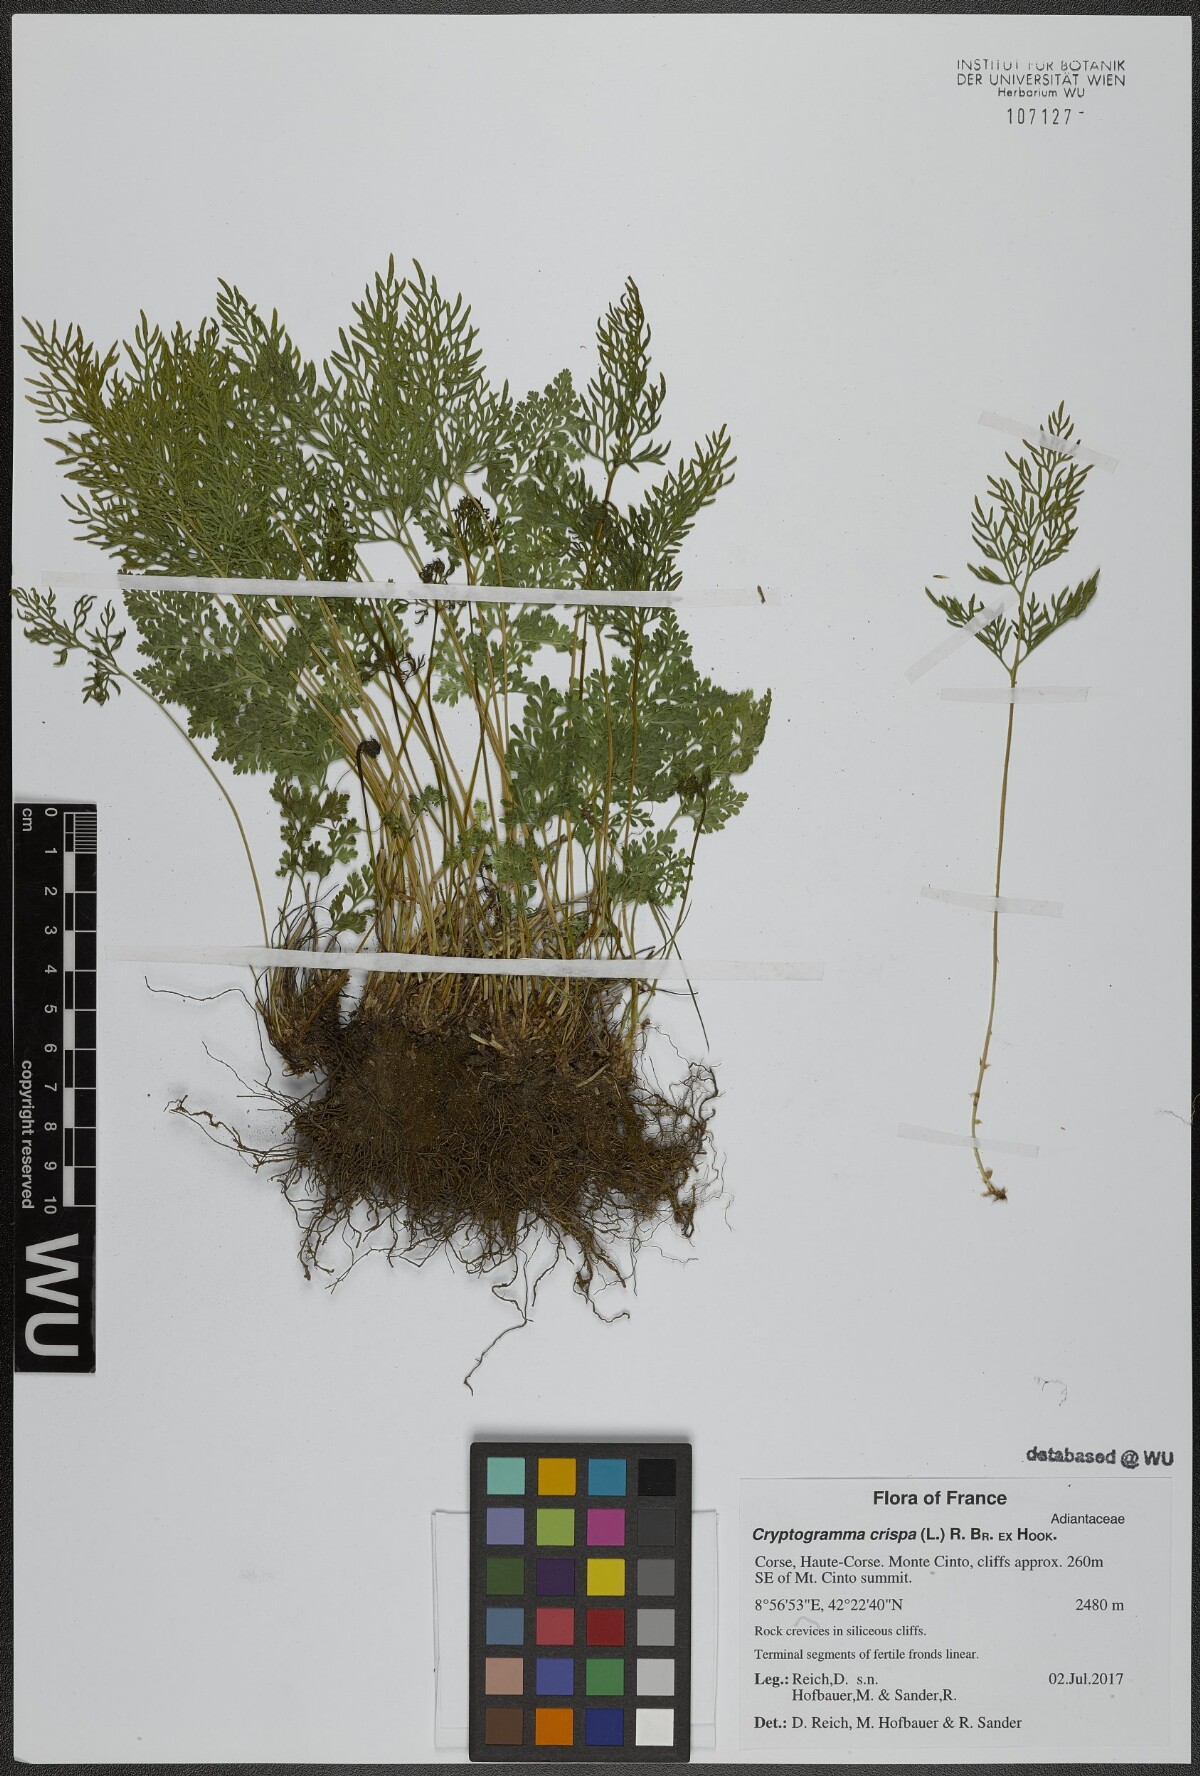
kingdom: Plantae
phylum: Tracheophyta
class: Polypodiopsida
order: Polypodiales
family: Pteridaceae
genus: Cryptogramma
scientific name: Cryptogramma crispa
